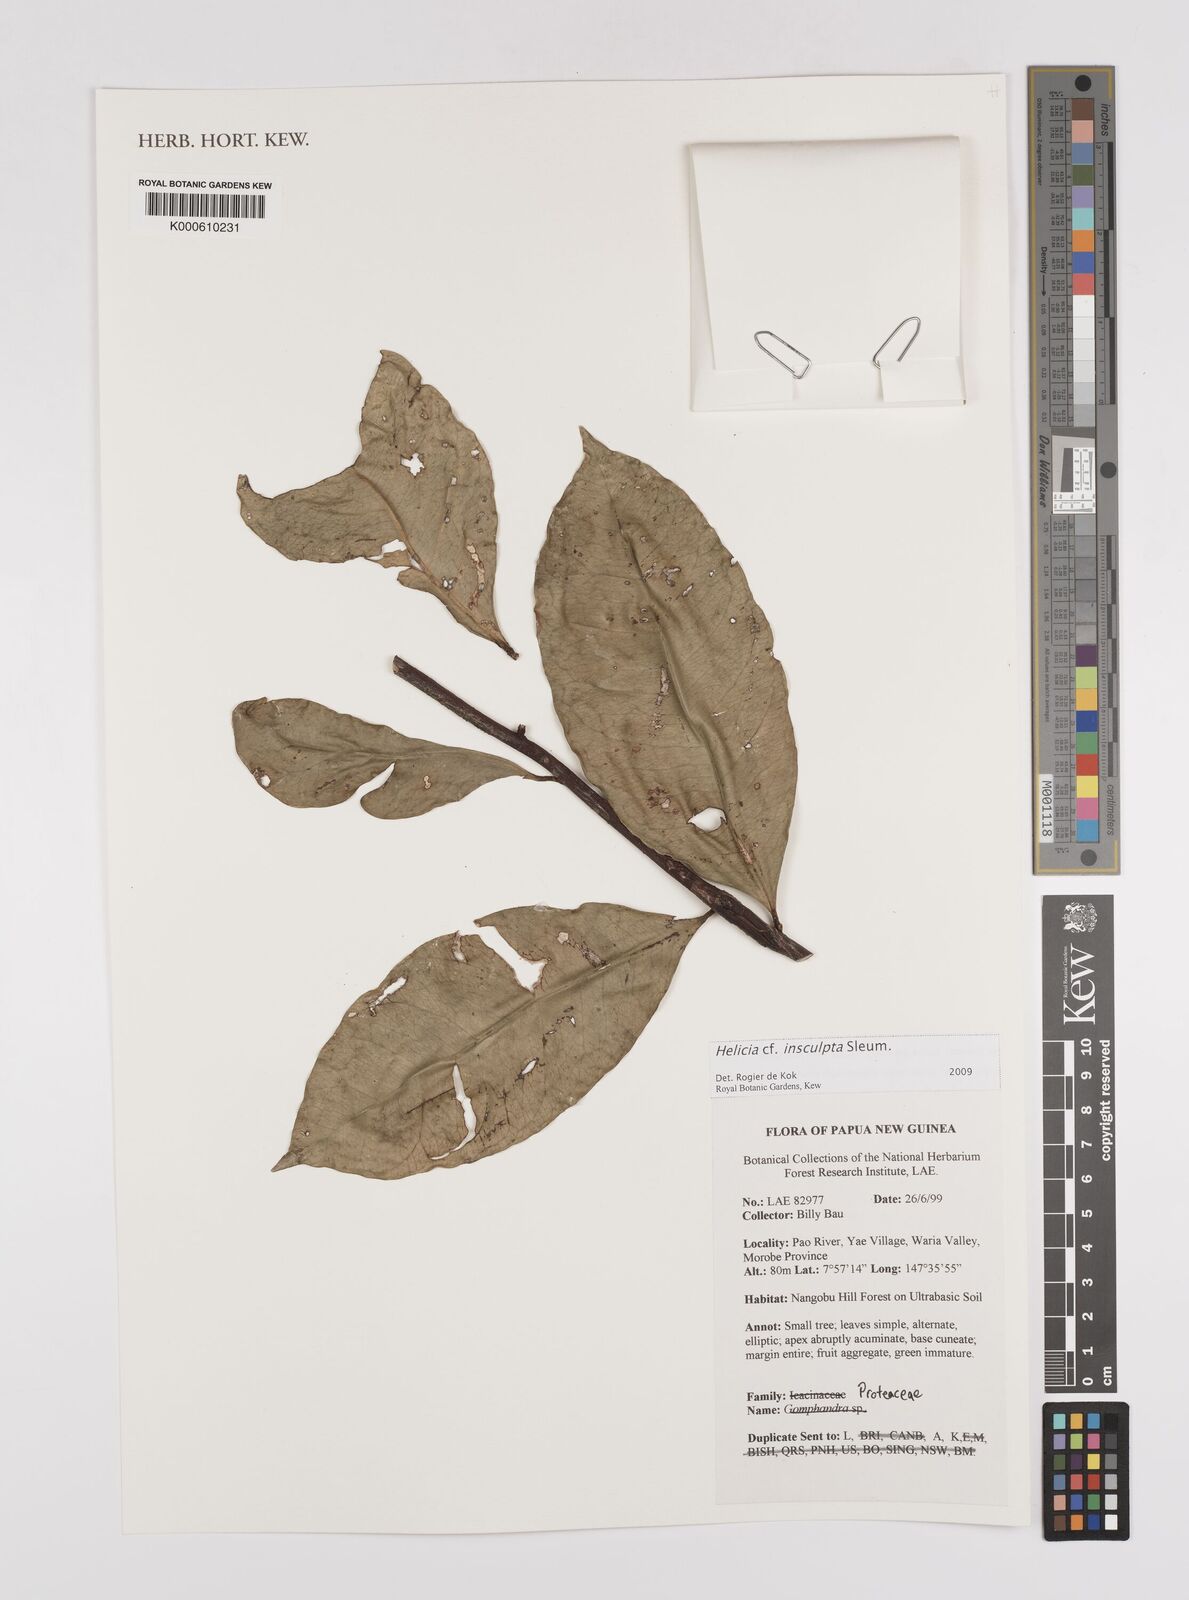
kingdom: Plantae
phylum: Tracheophyta
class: Magnoliopsida
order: Proteales
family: Proteaceae
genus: Helicia
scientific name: Helicia insculpta
